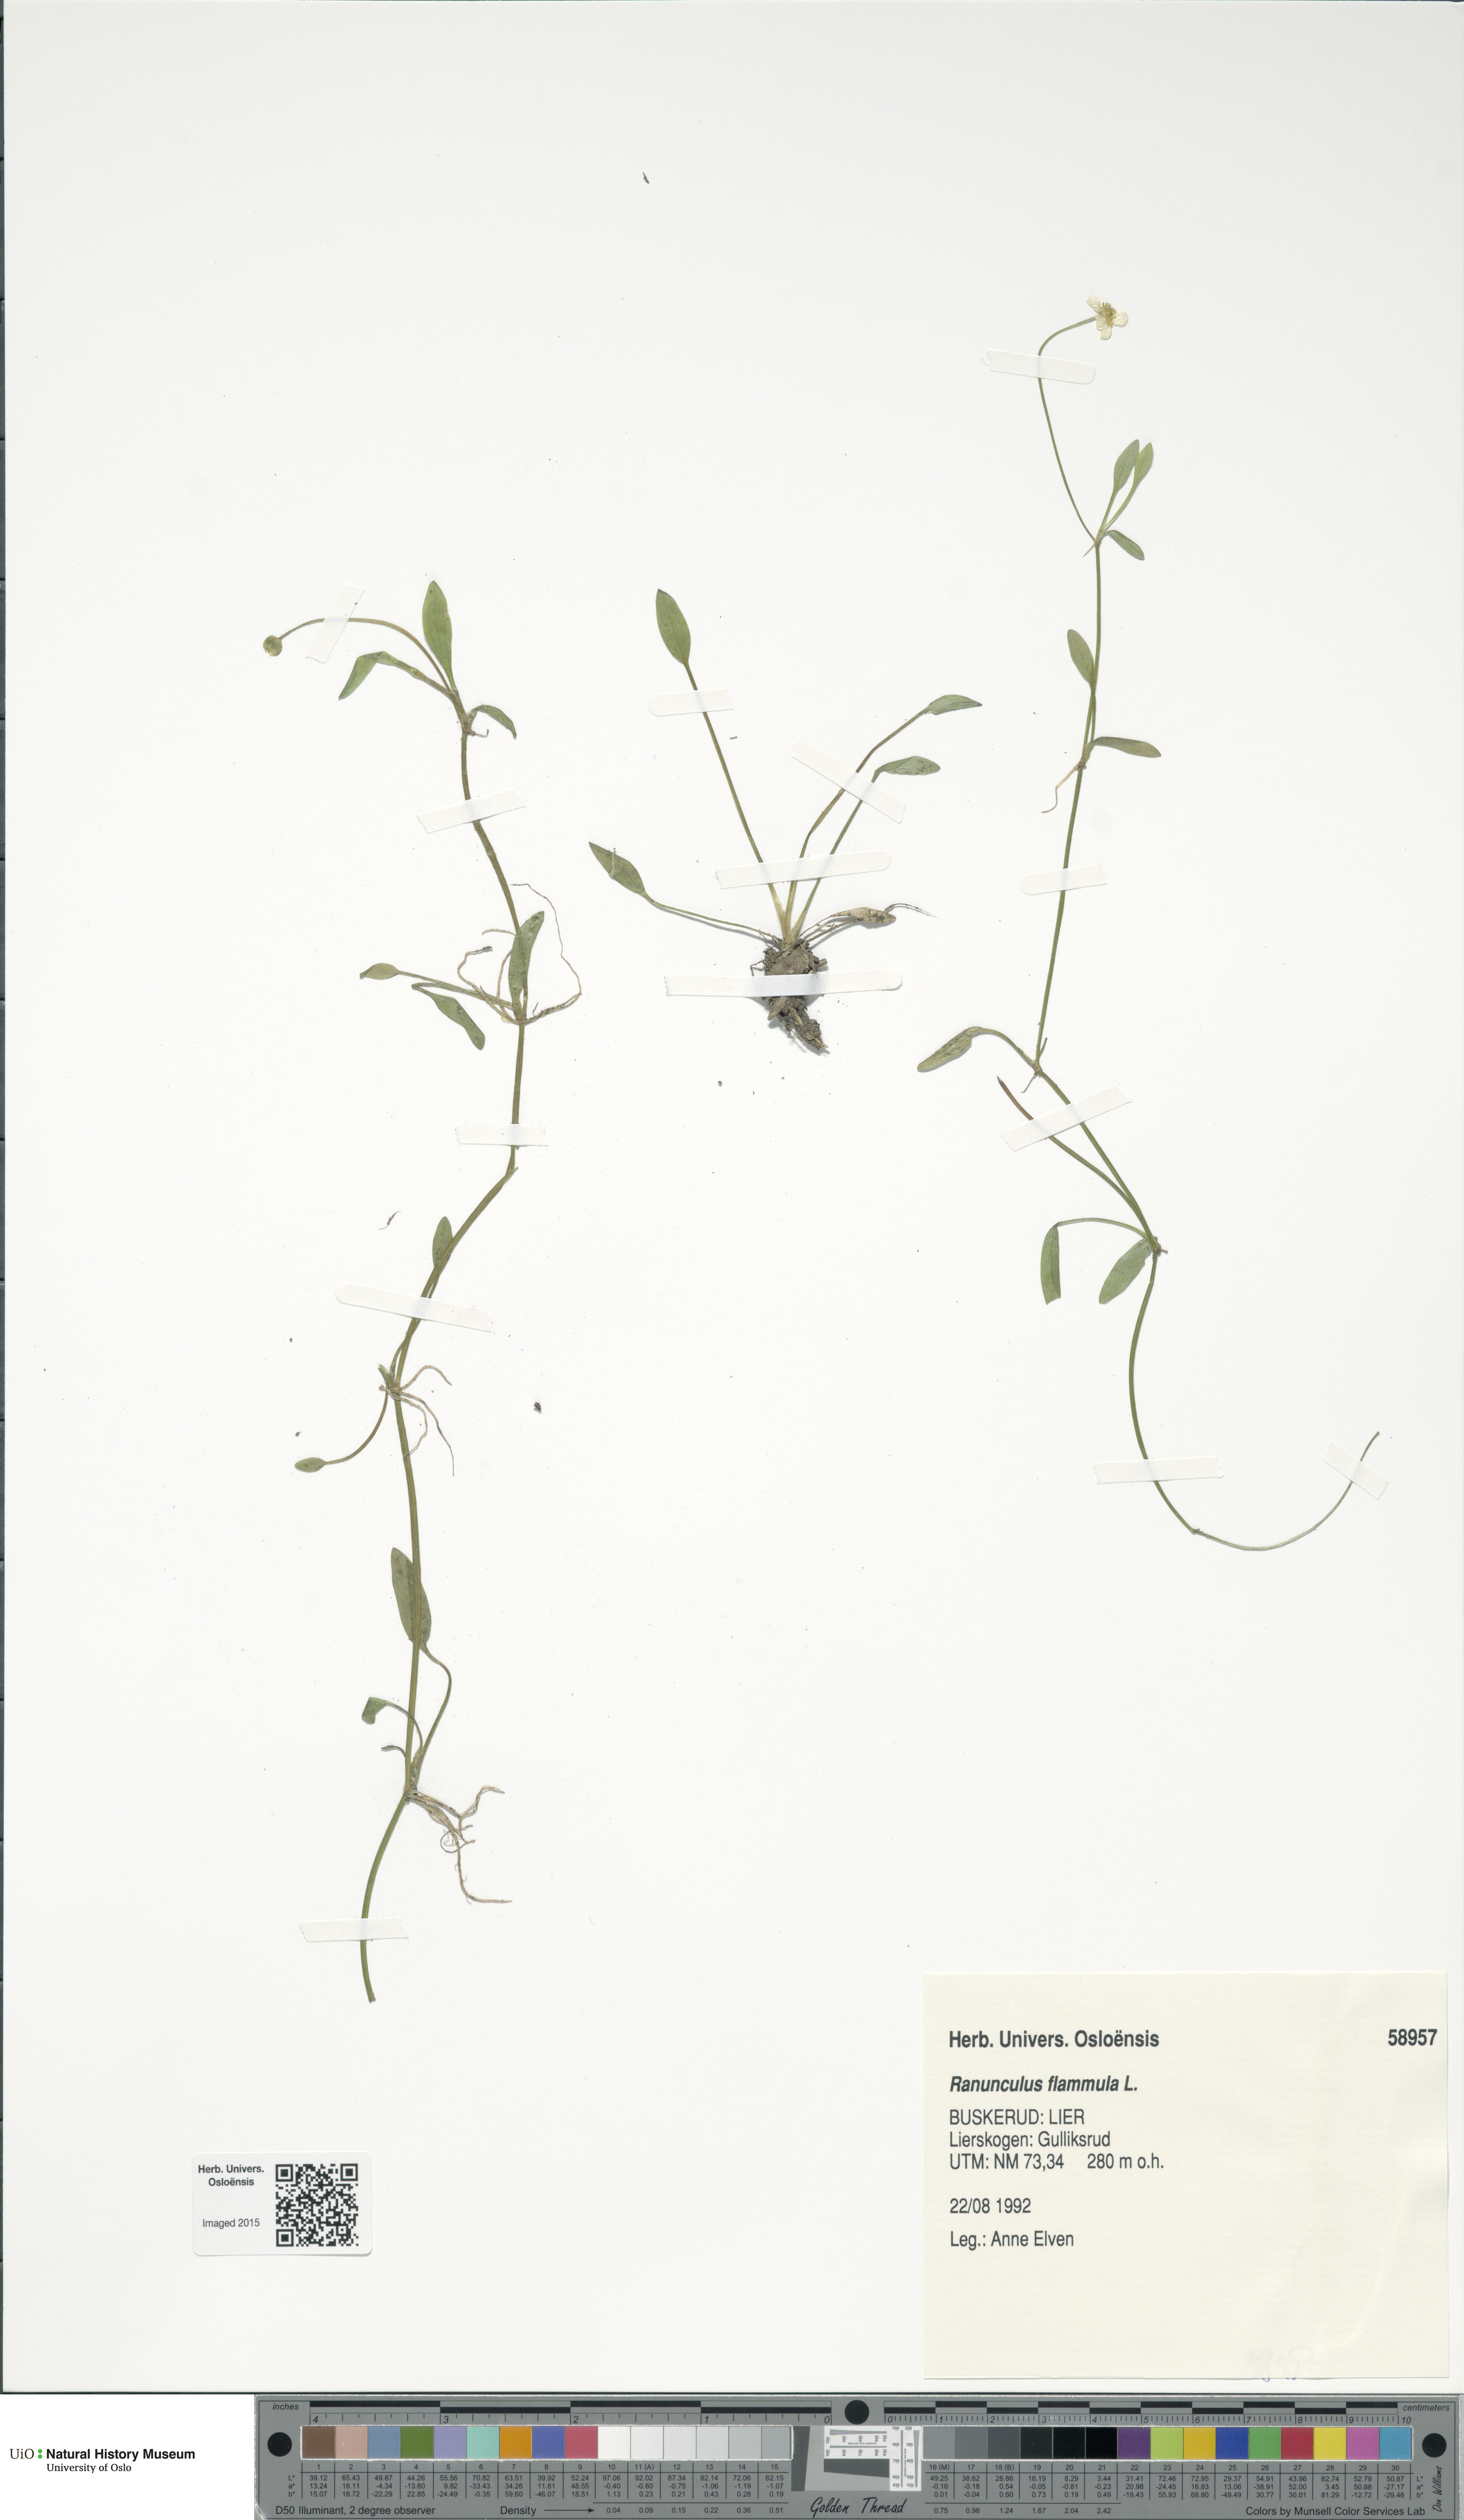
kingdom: Plantae
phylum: Tracheophyta
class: Magnoliopsida
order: Ranunculales
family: Ranunculaceae
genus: Ranunculus
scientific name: Ranunculus flammula
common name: Lesser spearwort
